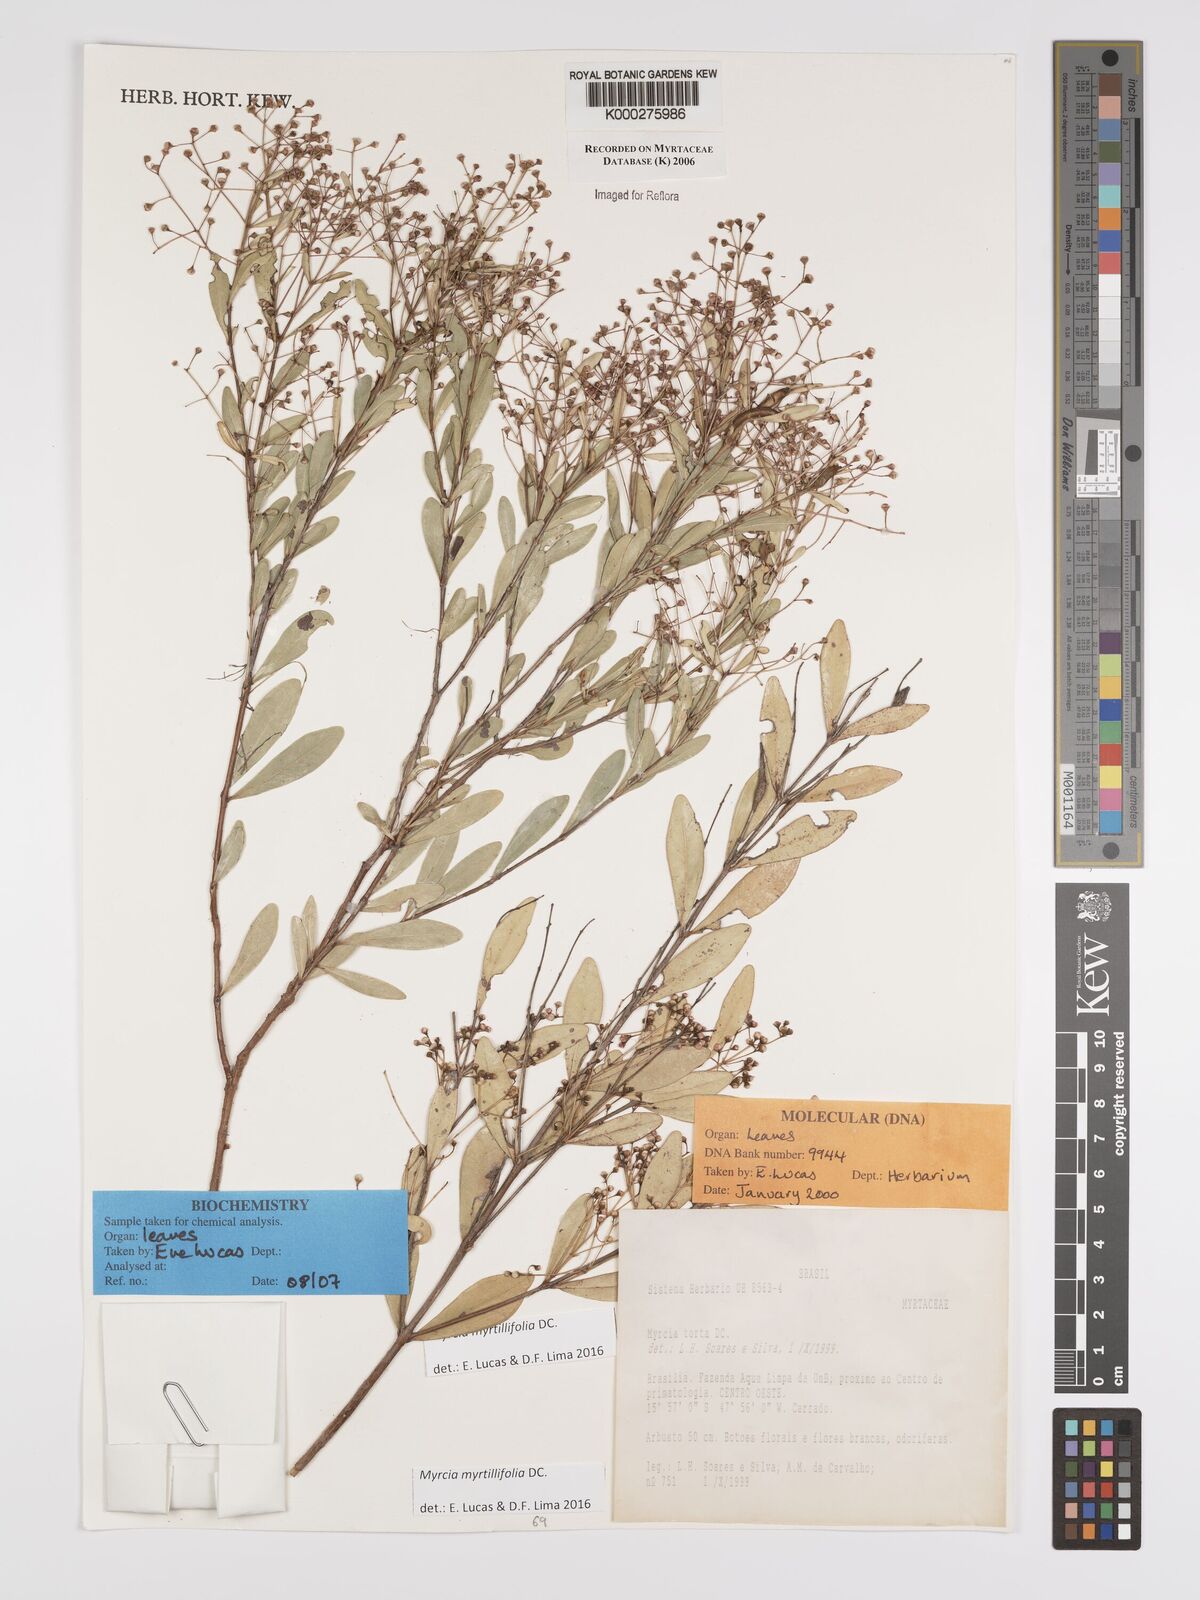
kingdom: Plantae
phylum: Tracheophyta
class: Magnoliopsida
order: Myrtales
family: Myrtaceae
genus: Myrcia
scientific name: Myrcia guianensis
